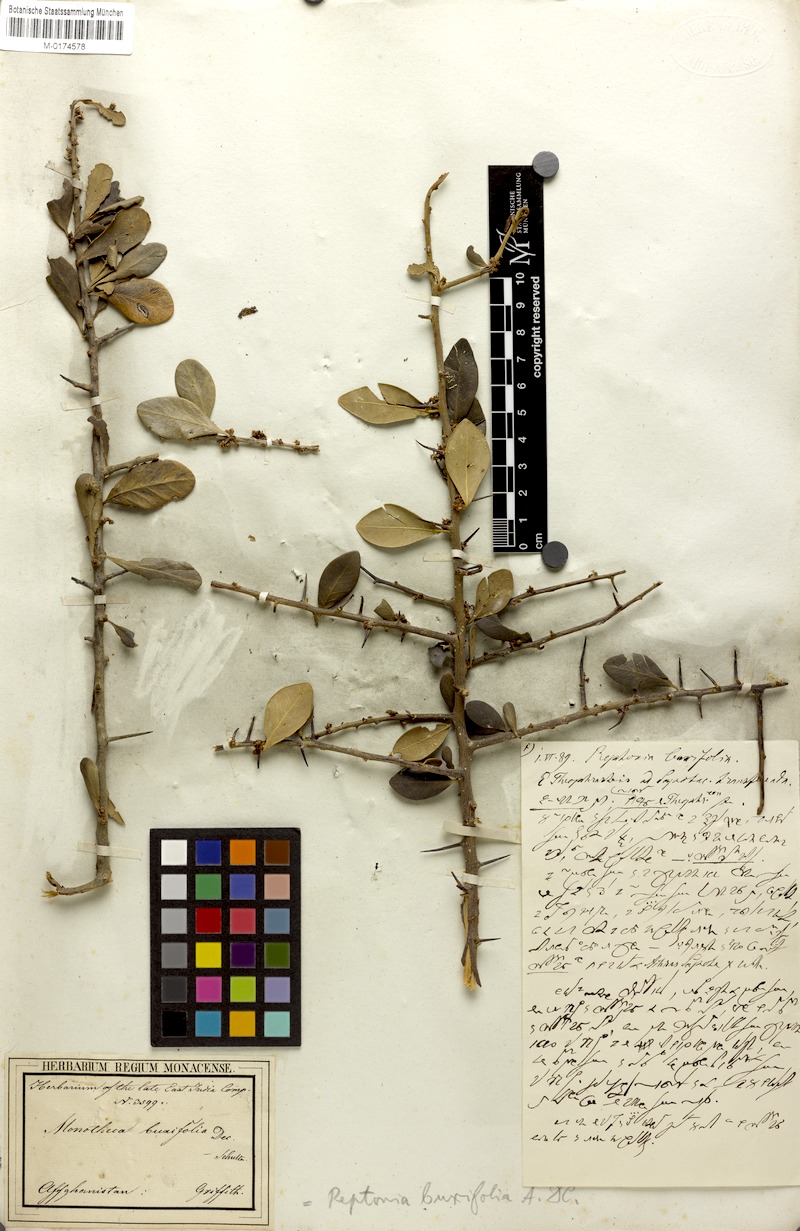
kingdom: Plantae
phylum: Tracheophyta
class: Magnoliopsida
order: Ericales
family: Sapotaceae
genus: Sideroxylon
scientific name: Sideroxylon mascatense
